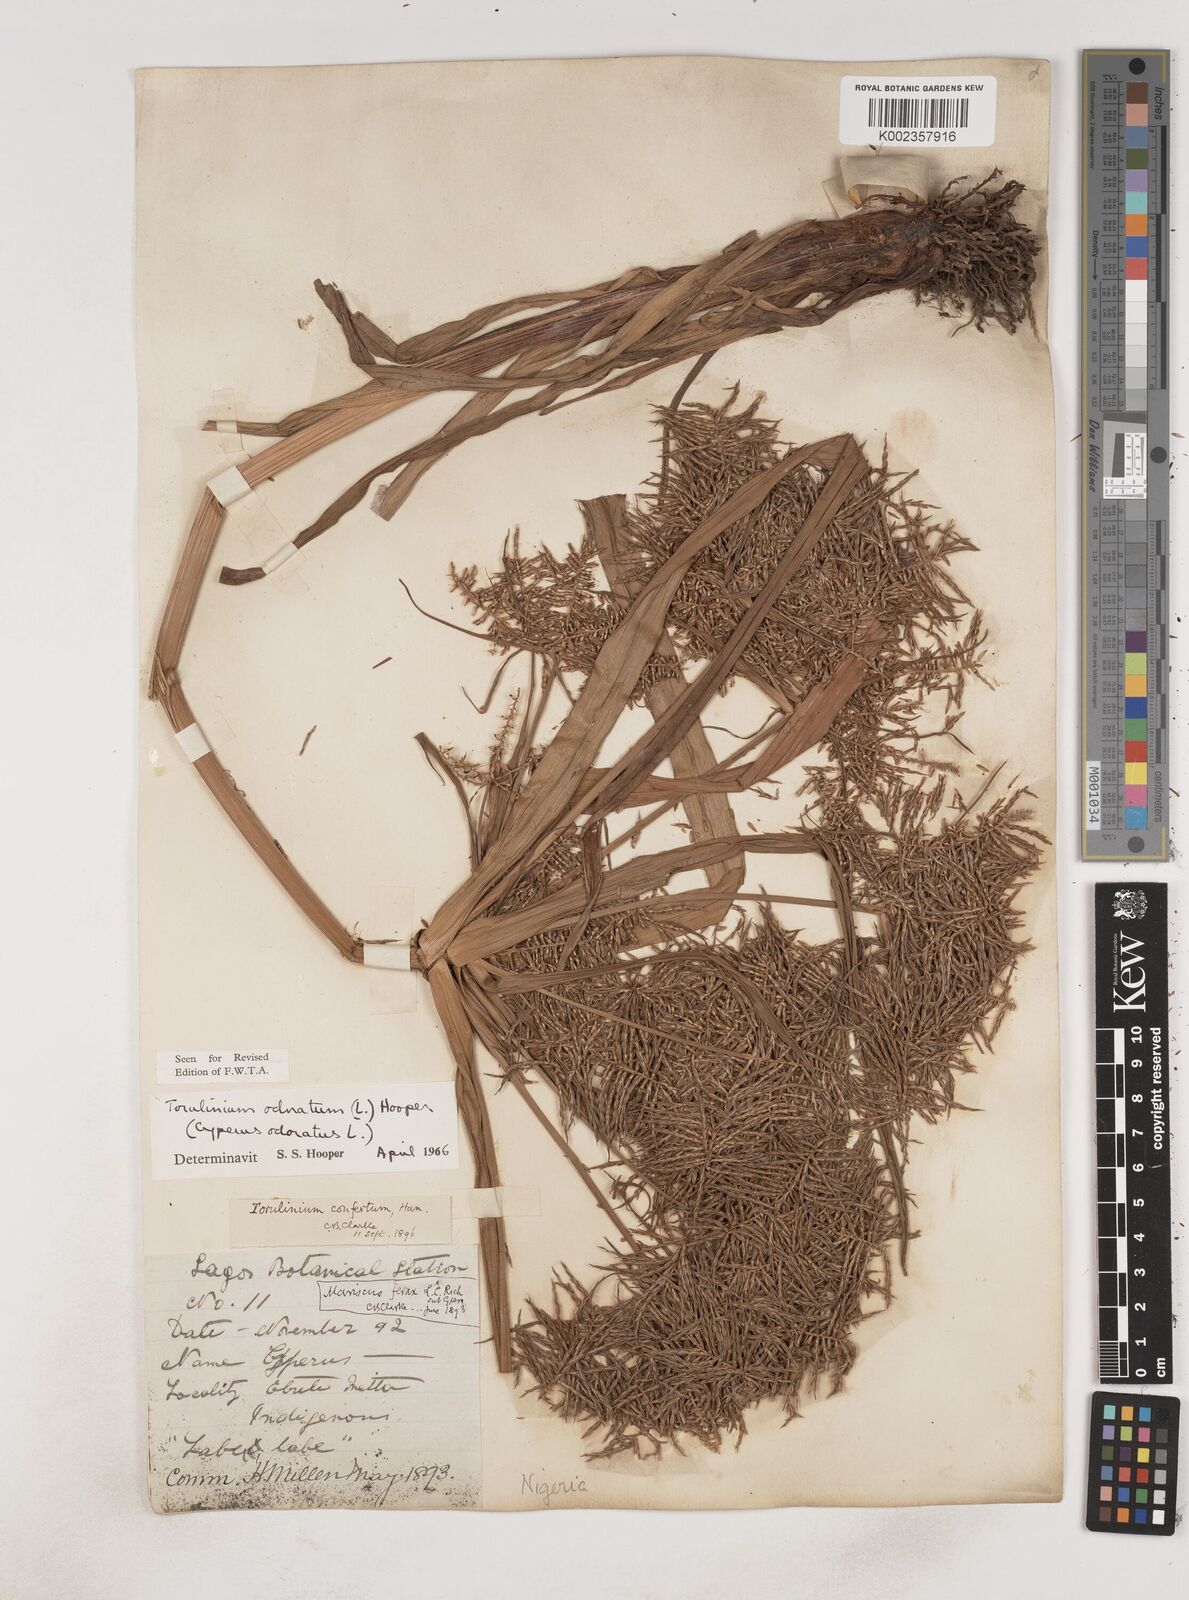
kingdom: Plantae
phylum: Tracheophyta
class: Liliopsida
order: Poales
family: Cyperaceae
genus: Cyperus
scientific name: Cyperus odoratus
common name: Fragrant flatsedge
